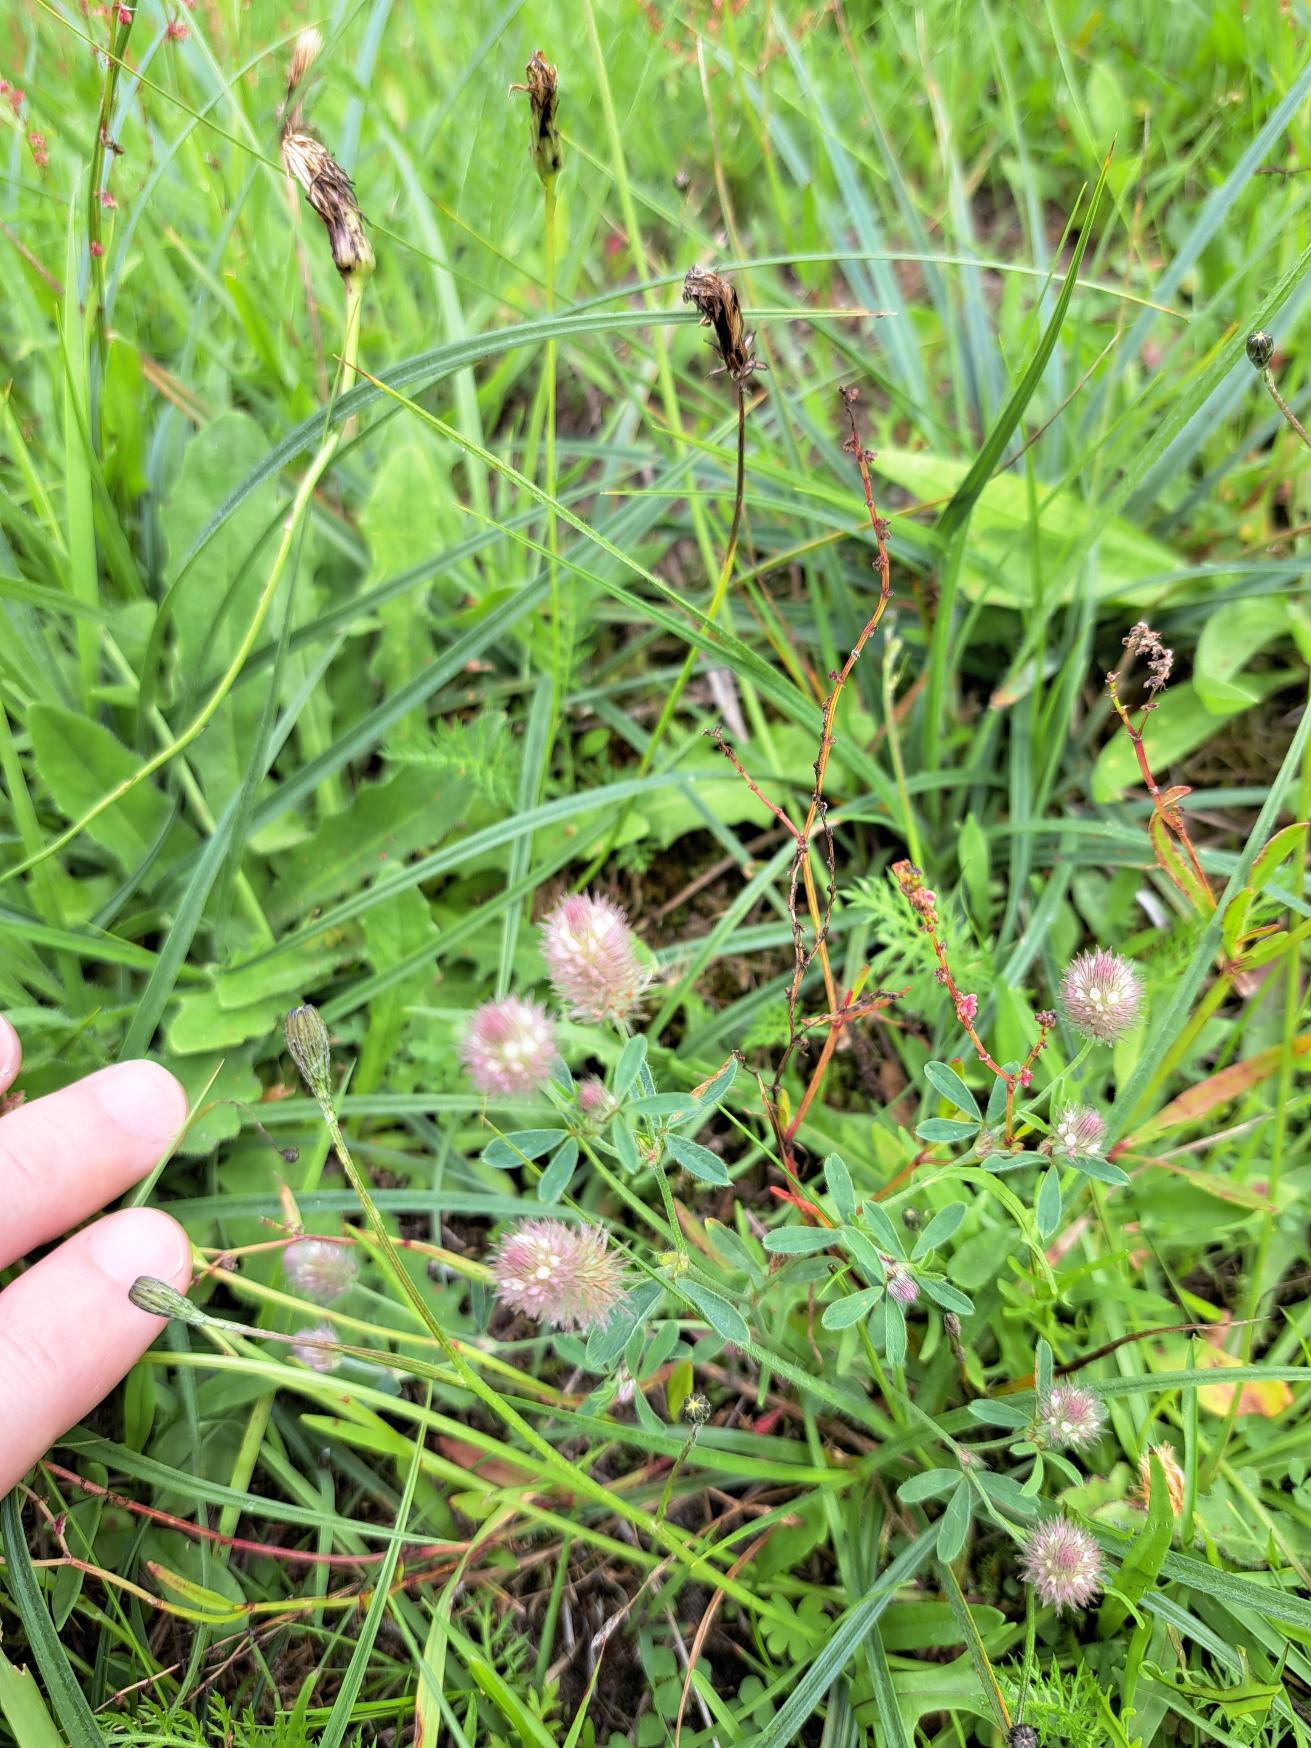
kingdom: Plantae
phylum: Tracheophyta
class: Magnoliopsida
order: Fabales
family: Fabaceae
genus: Trifolium
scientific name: Trifolium arvense
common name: Hare-kløver
